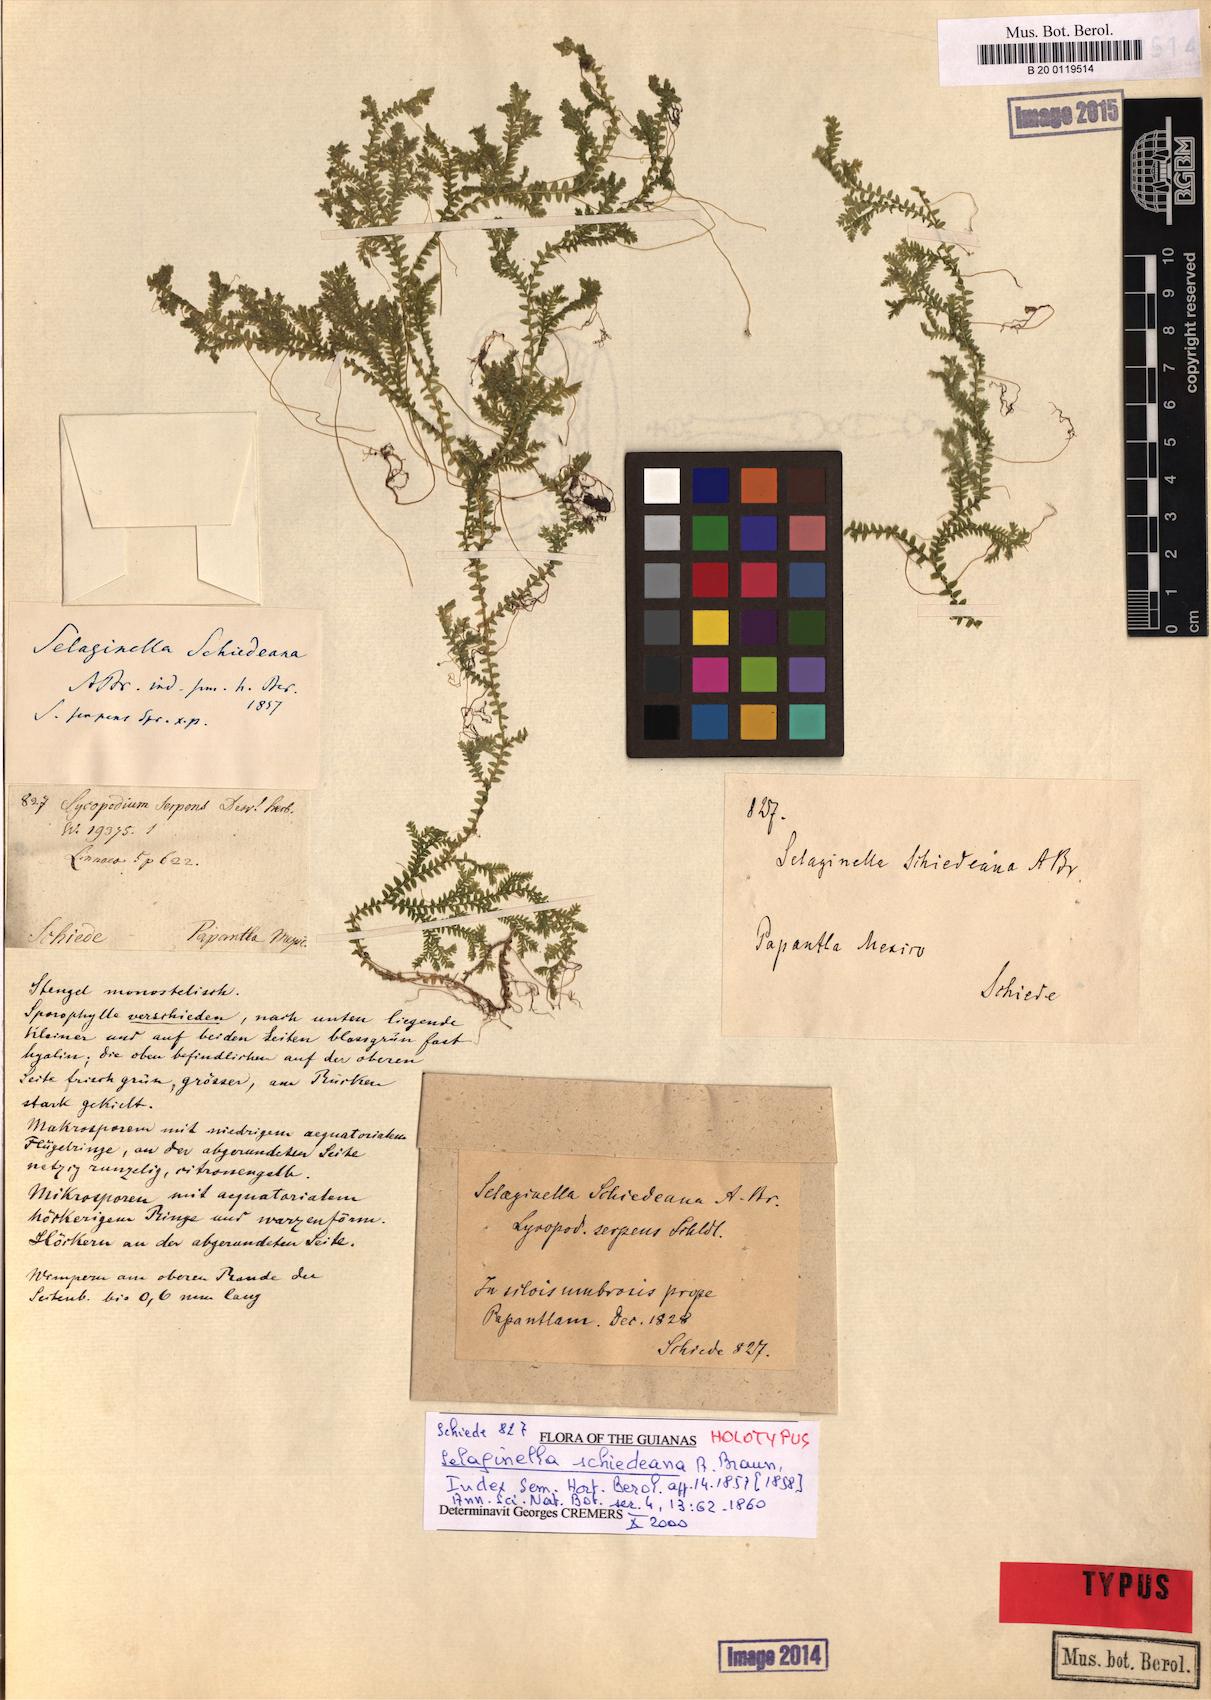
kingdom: Plantae
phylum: Tracheophyta
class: Lycopodiopsida
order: Selaginellales
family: Selaginellaceae
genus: Selaginella
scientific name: Selaginella schiedeana
